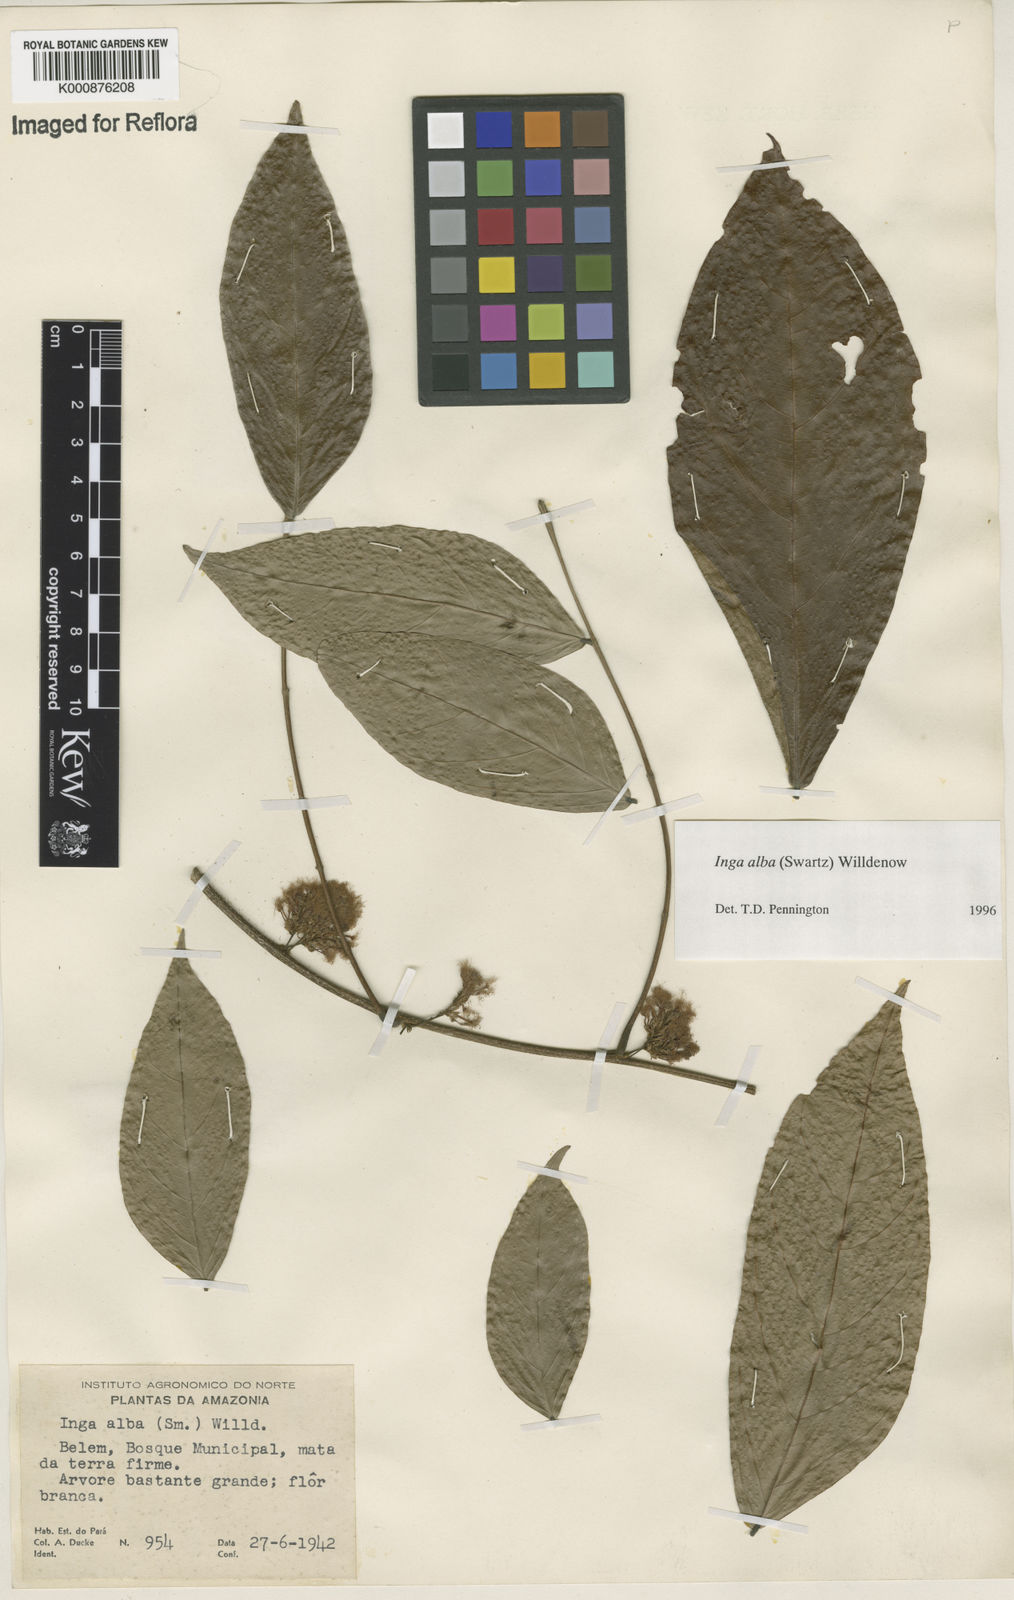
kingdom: Plantae
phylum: Tracheophyta
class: Magnoliopsida
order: Fabales
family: Fabaceae
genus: Inga
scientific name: Inga alba
